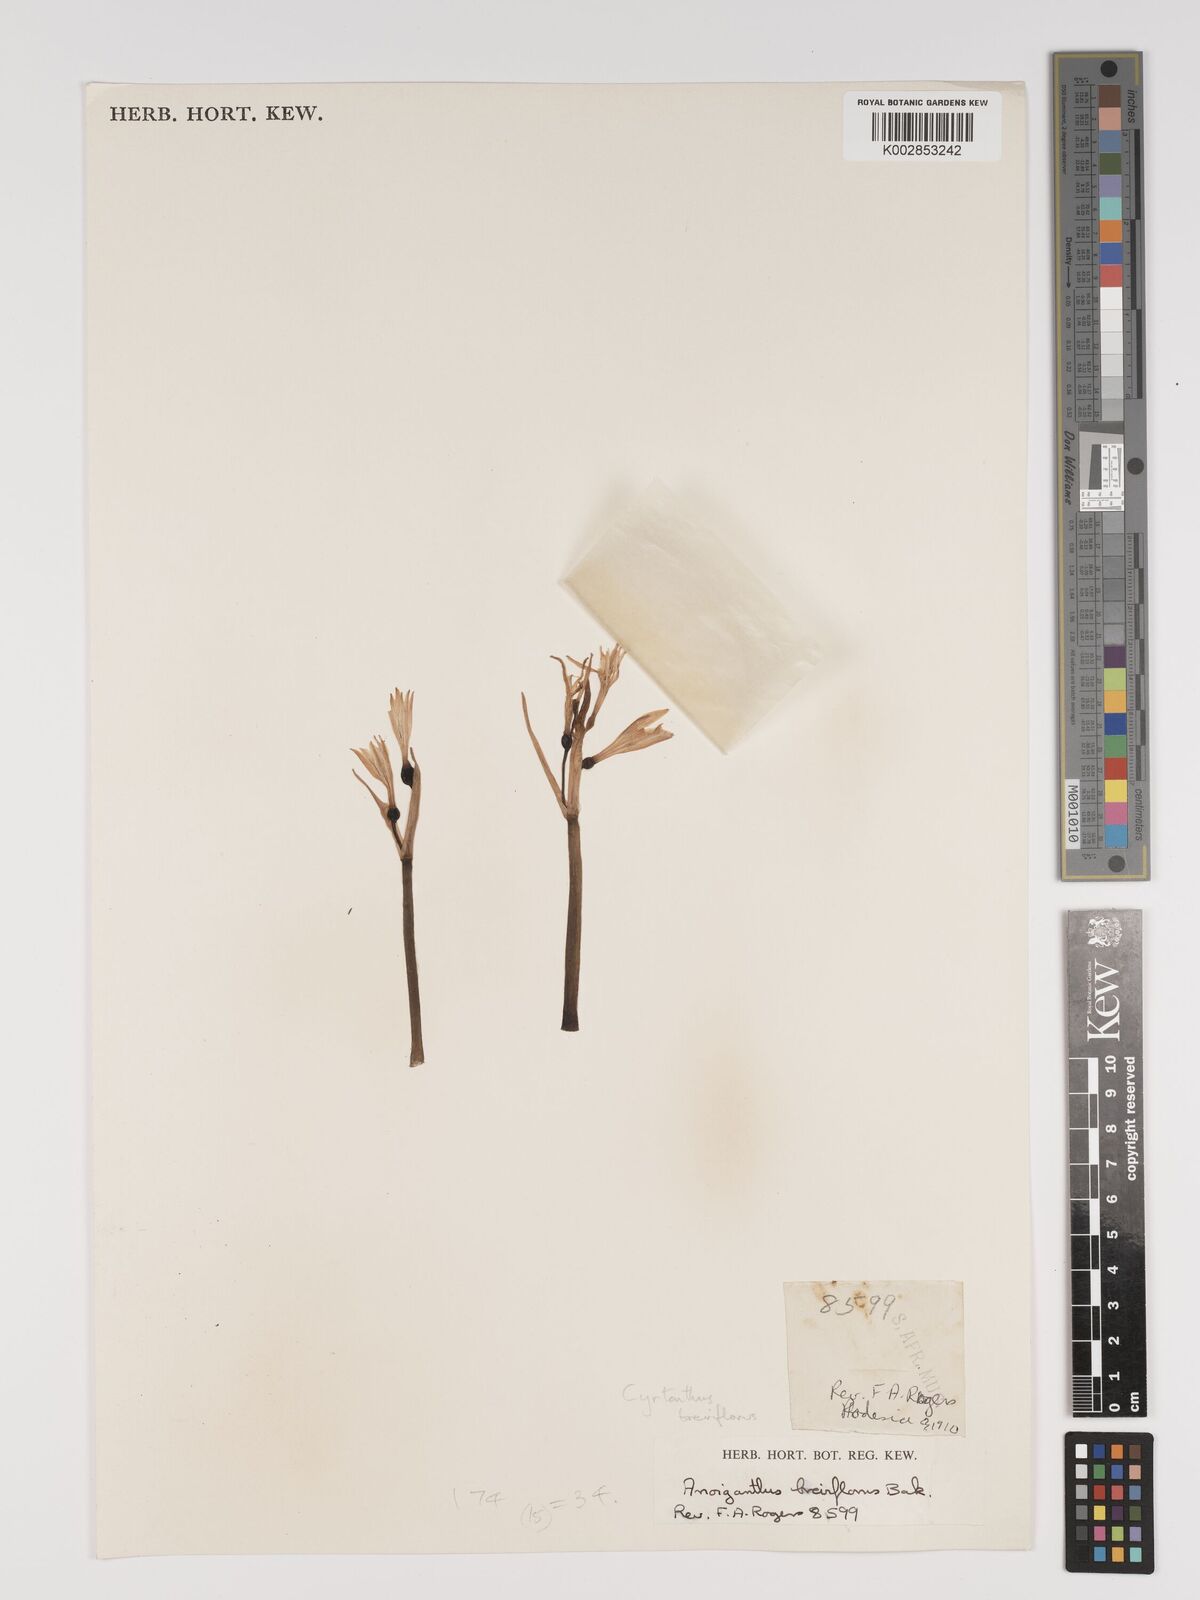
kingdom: Plantae
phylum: Tracheophyta
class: Liliopsida
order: Asparagales
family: Amaryllidaceae
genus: Cyrtanthus
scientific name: Cyrtanthus breviflorus
